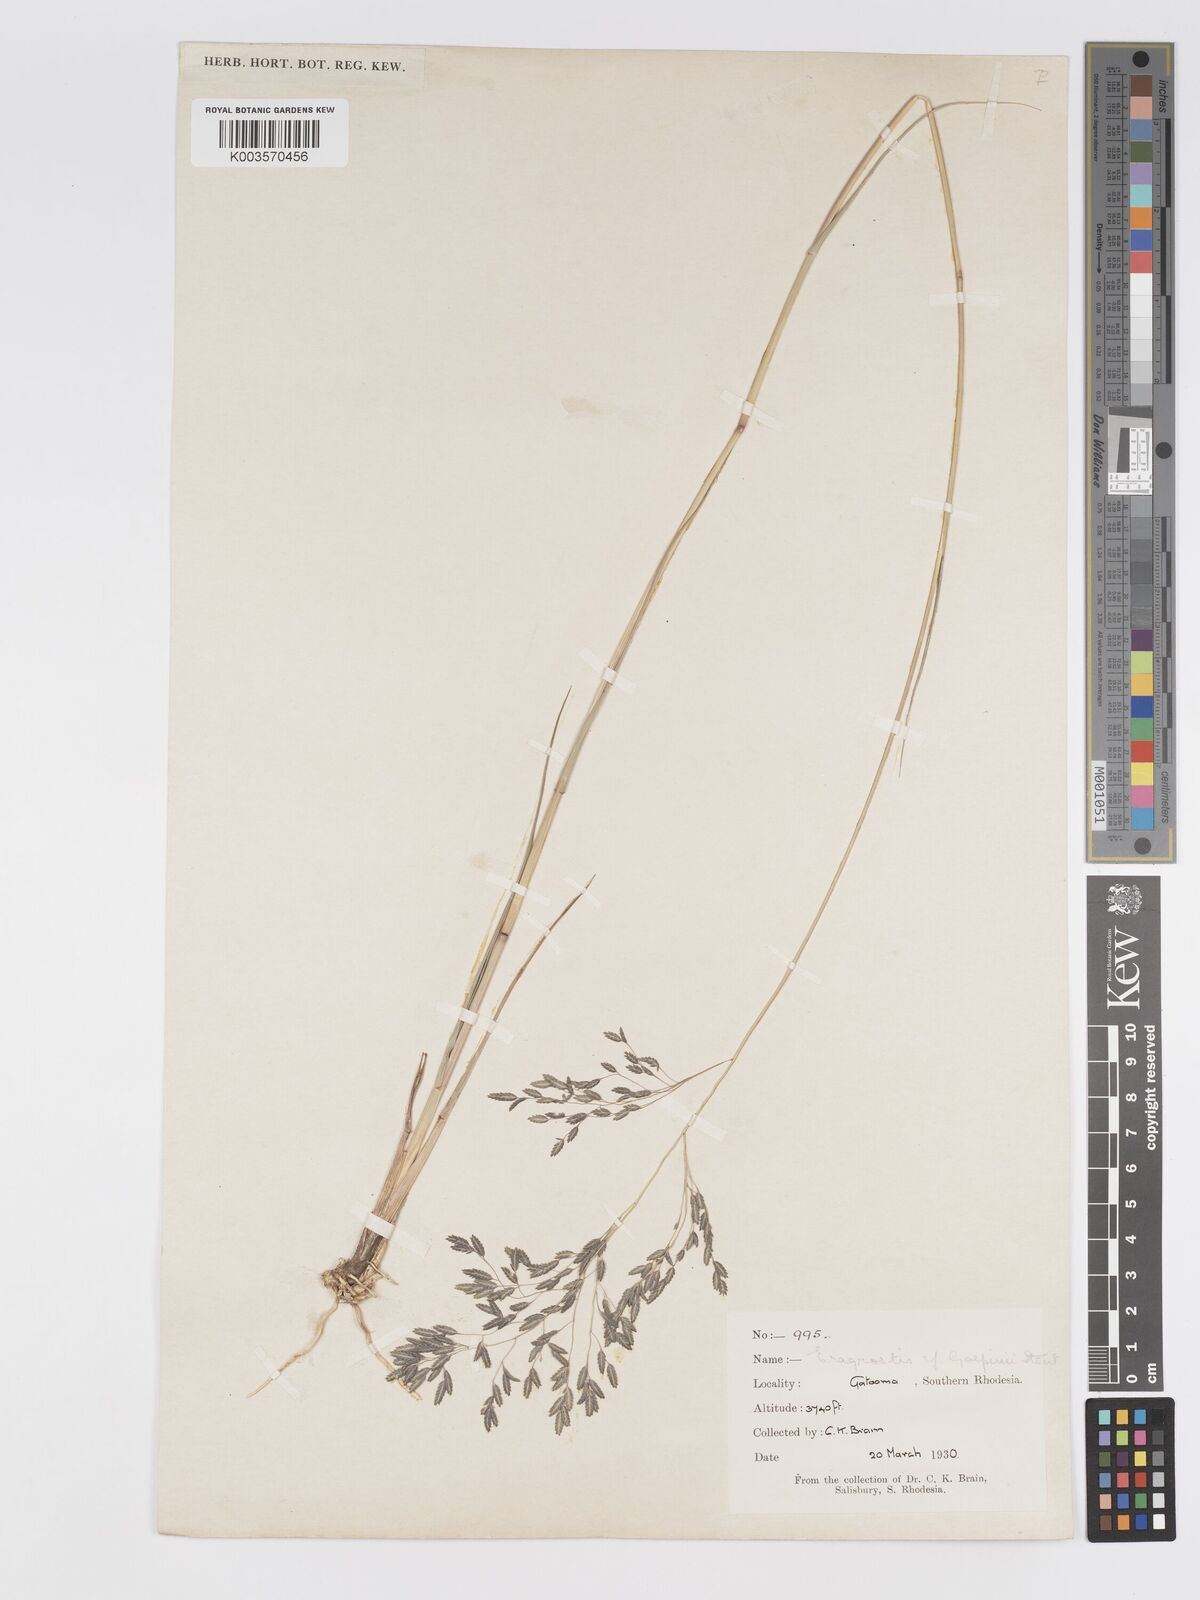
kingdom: Plantae
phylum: Tracheophyta
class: Liliopsida
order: Poales
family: Poaceae
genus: Eragrostis
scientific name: Eragrostis inamoena
